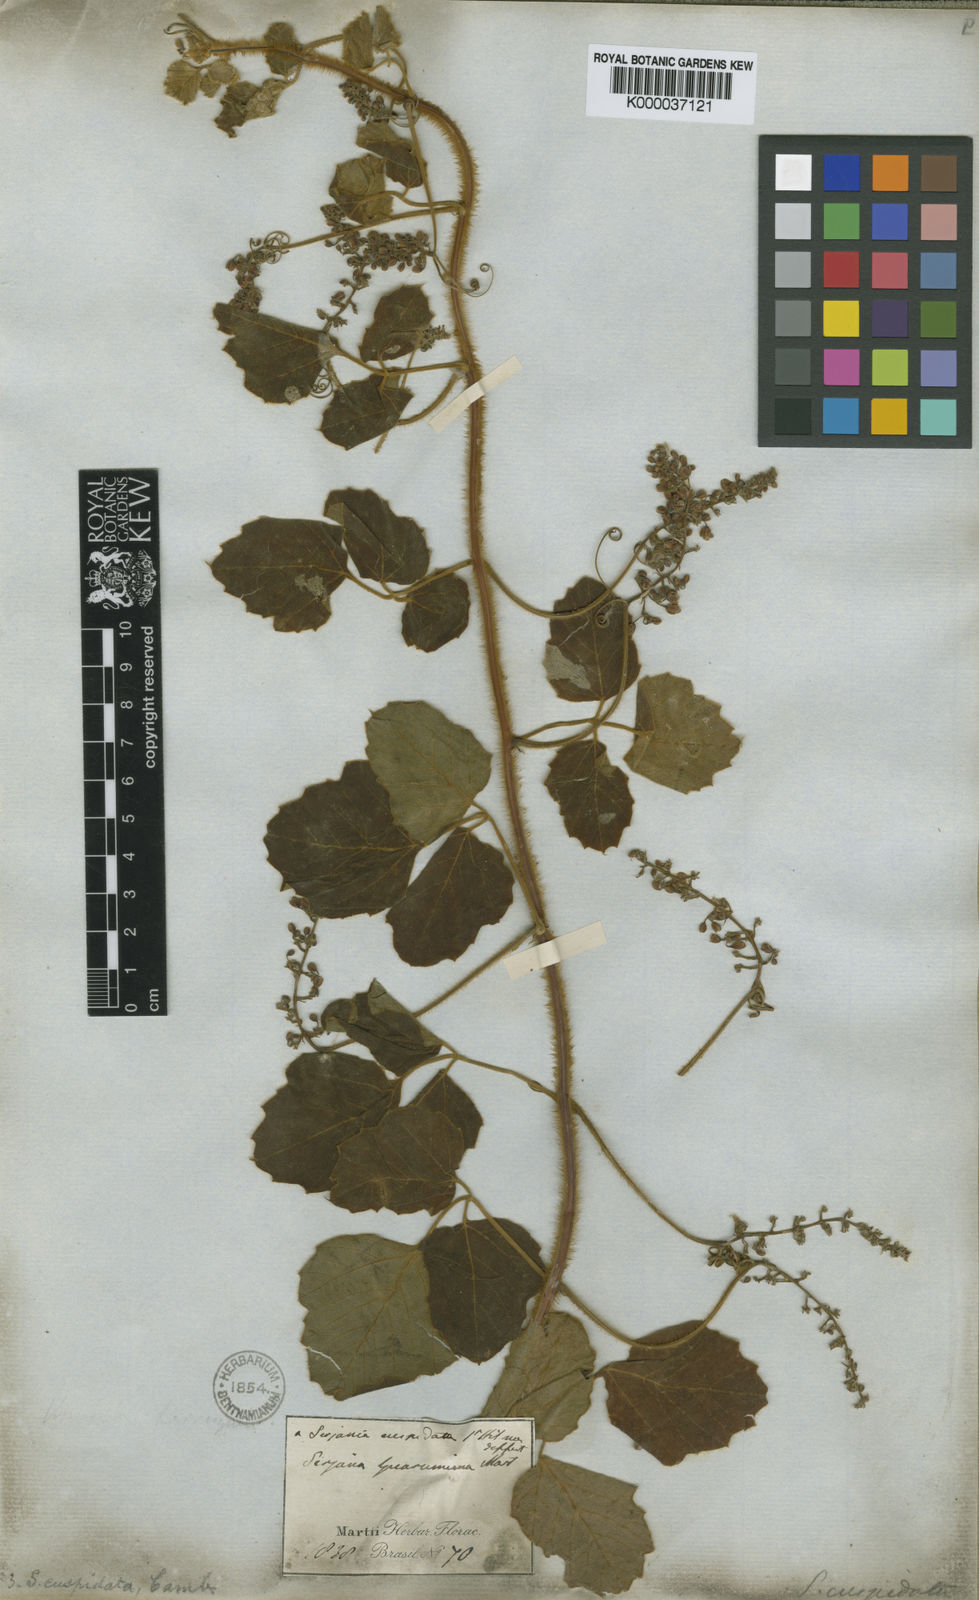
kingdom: Plantae
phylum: Tracheophyta
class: Magnoliopsida
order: Sapindales
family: Sapindaceae
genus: Serjania
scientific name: Serjania ferruginea
